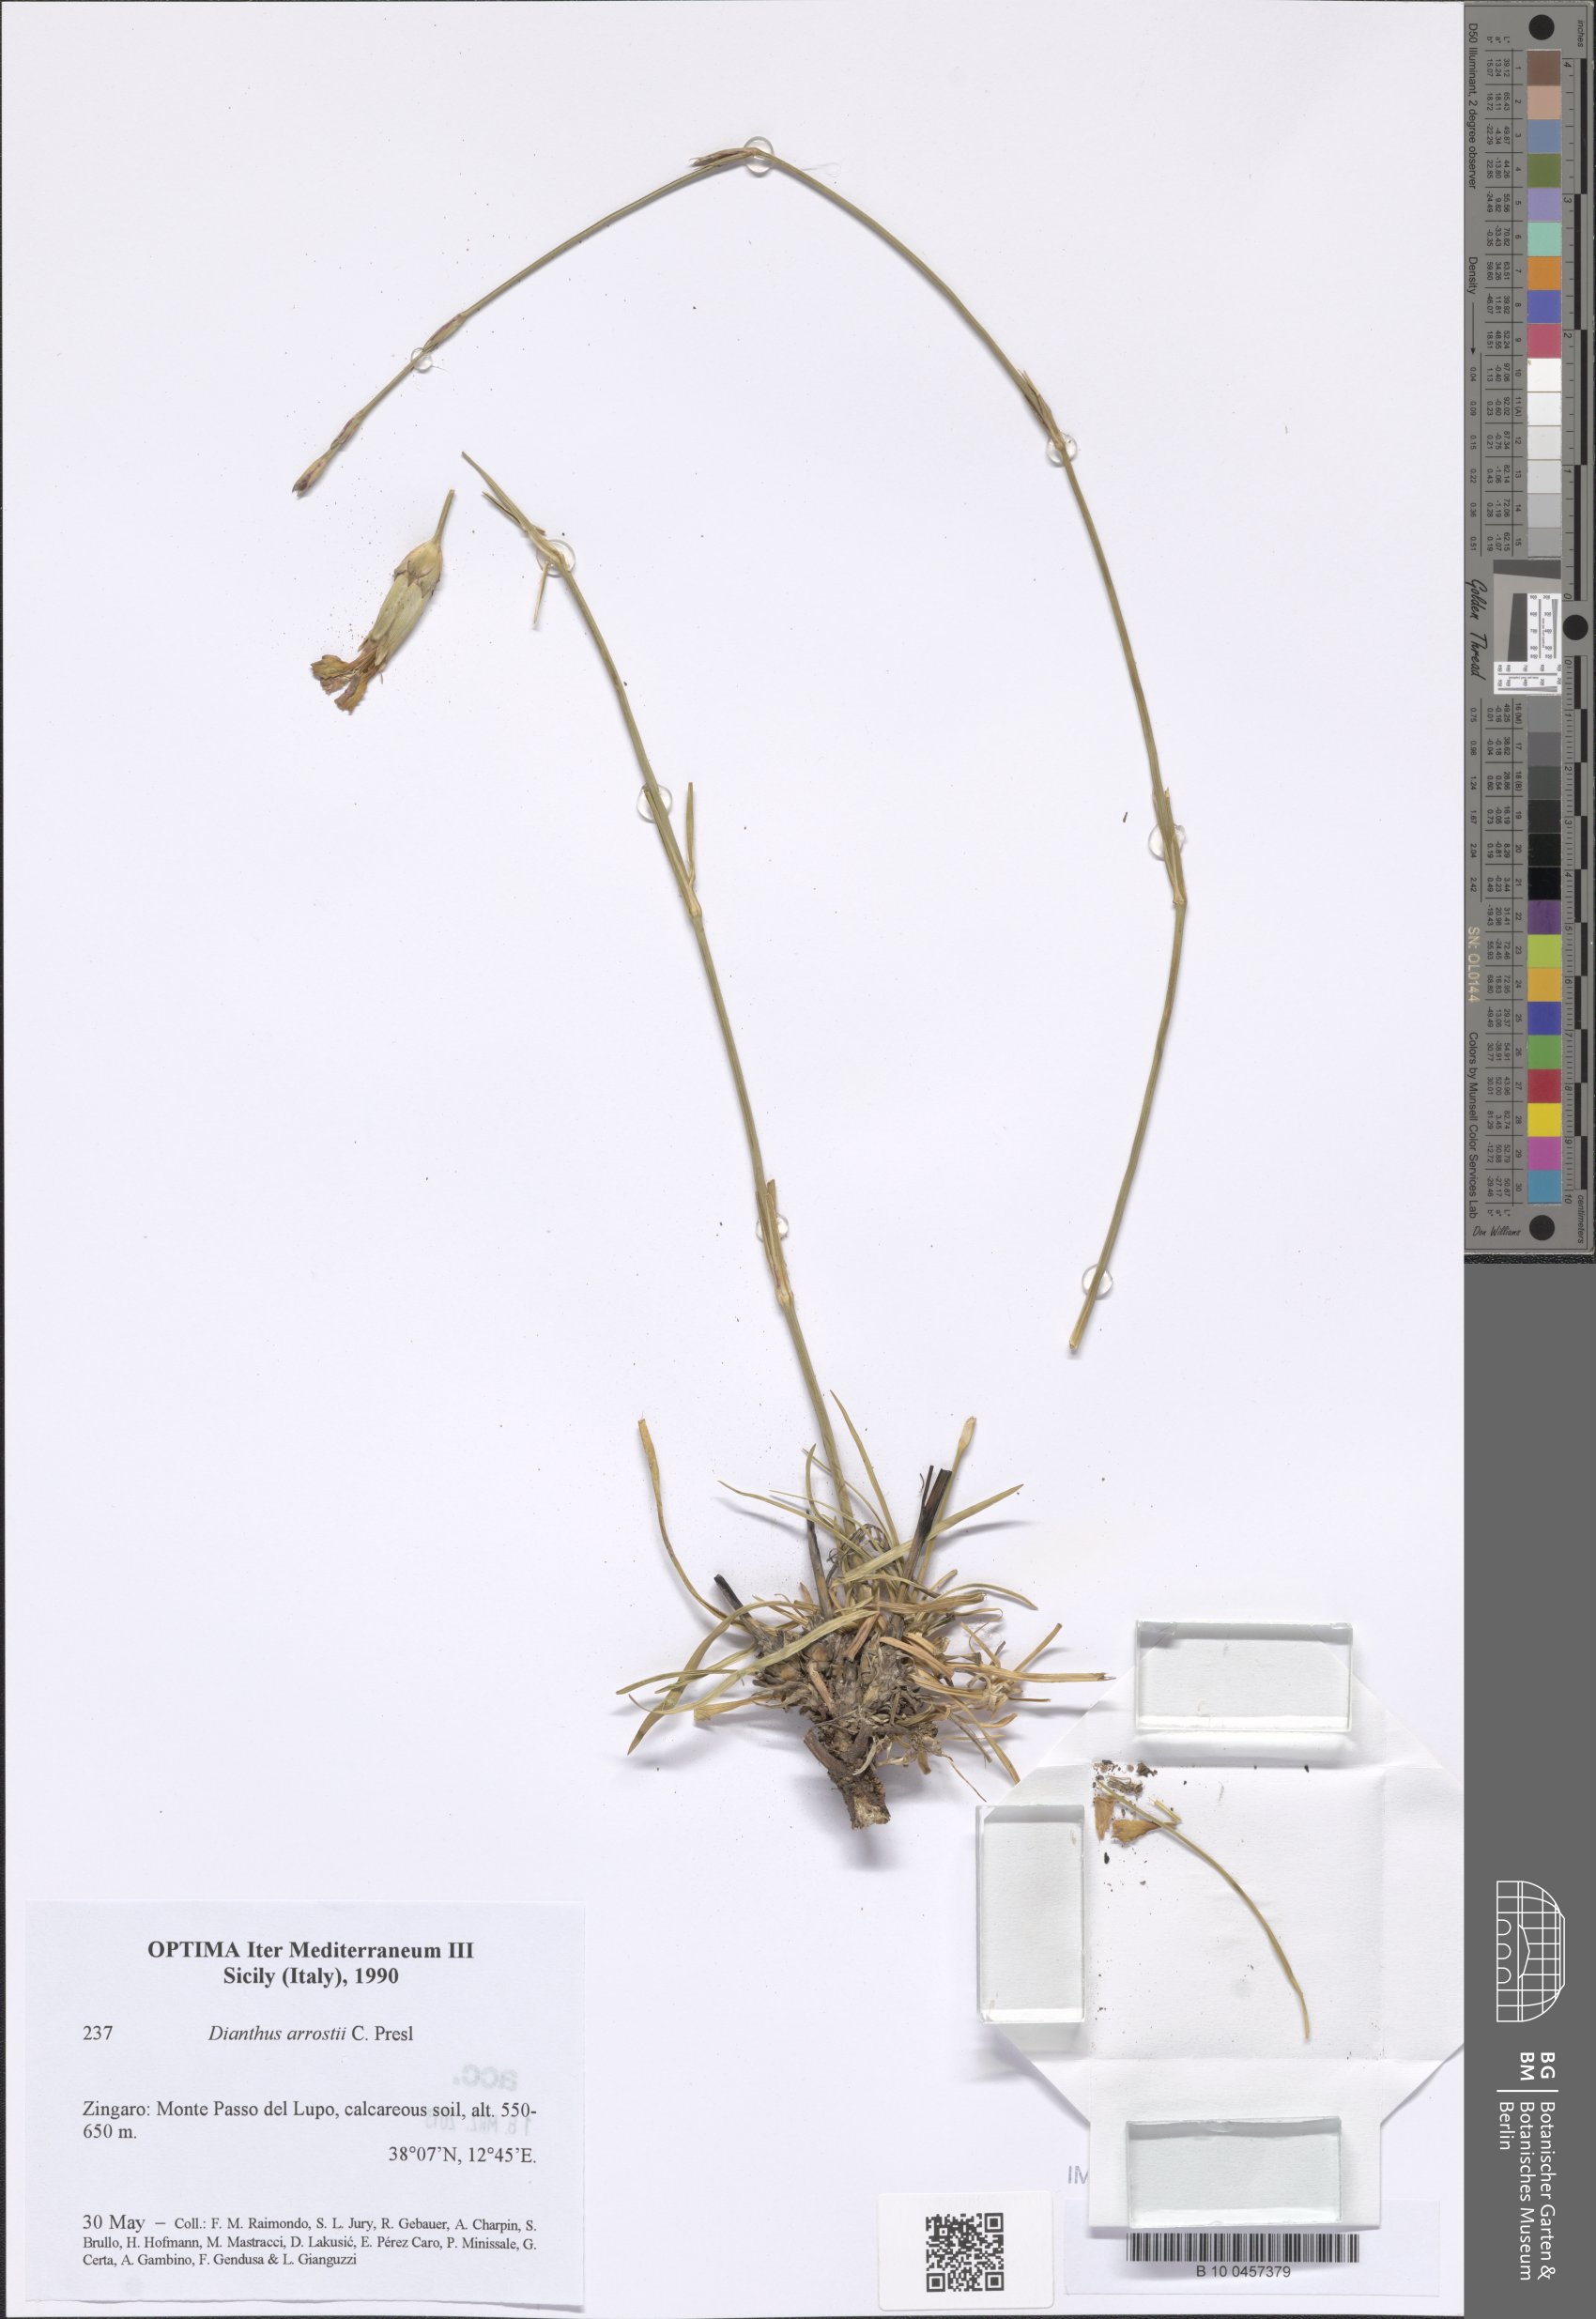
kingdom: Plantae
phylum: Tracheophyta
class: Magnoliopsida
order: Caryophyllales
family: Caryophyllaceae
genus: Dianthus
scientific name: Dianthus arrostii
